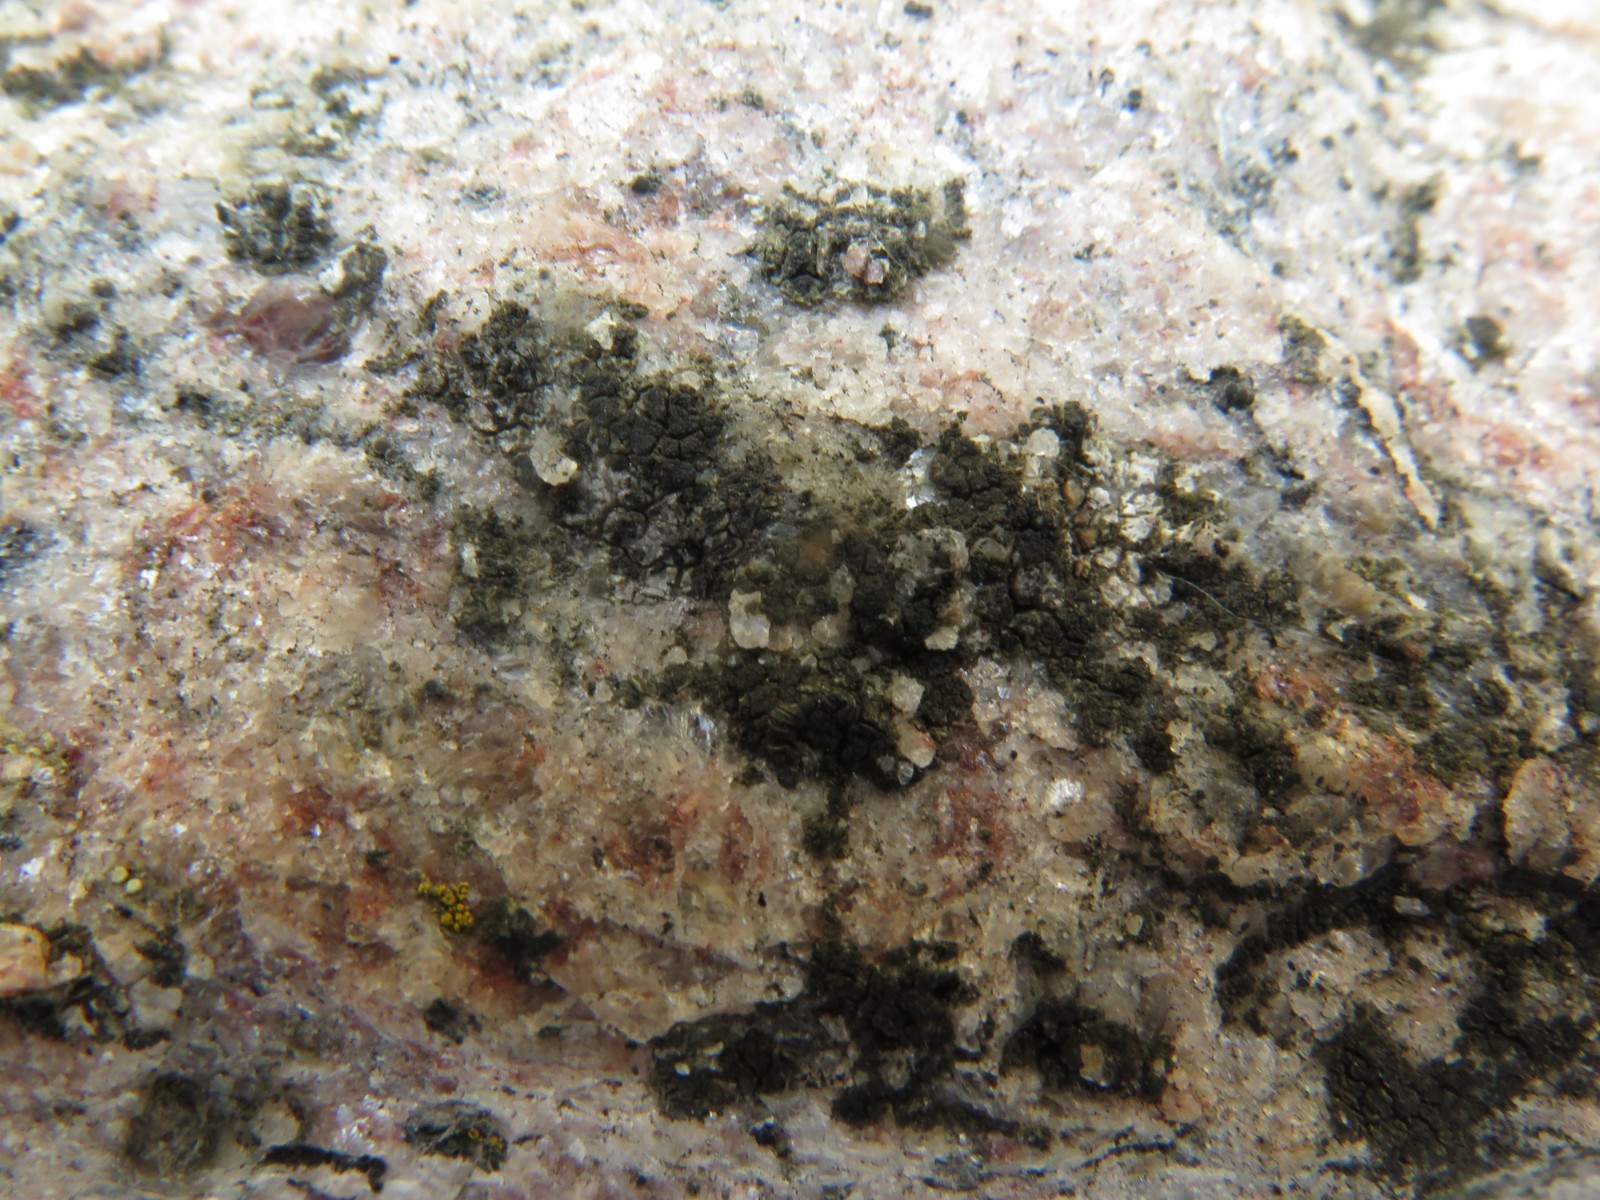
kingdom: Fungi
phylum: Ascomycota
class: Lecanoromycetes
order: Acarosporales
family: Acarosporaceae
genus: Acarospora
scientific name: Acarospora privigna
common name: sort foldekantlav
